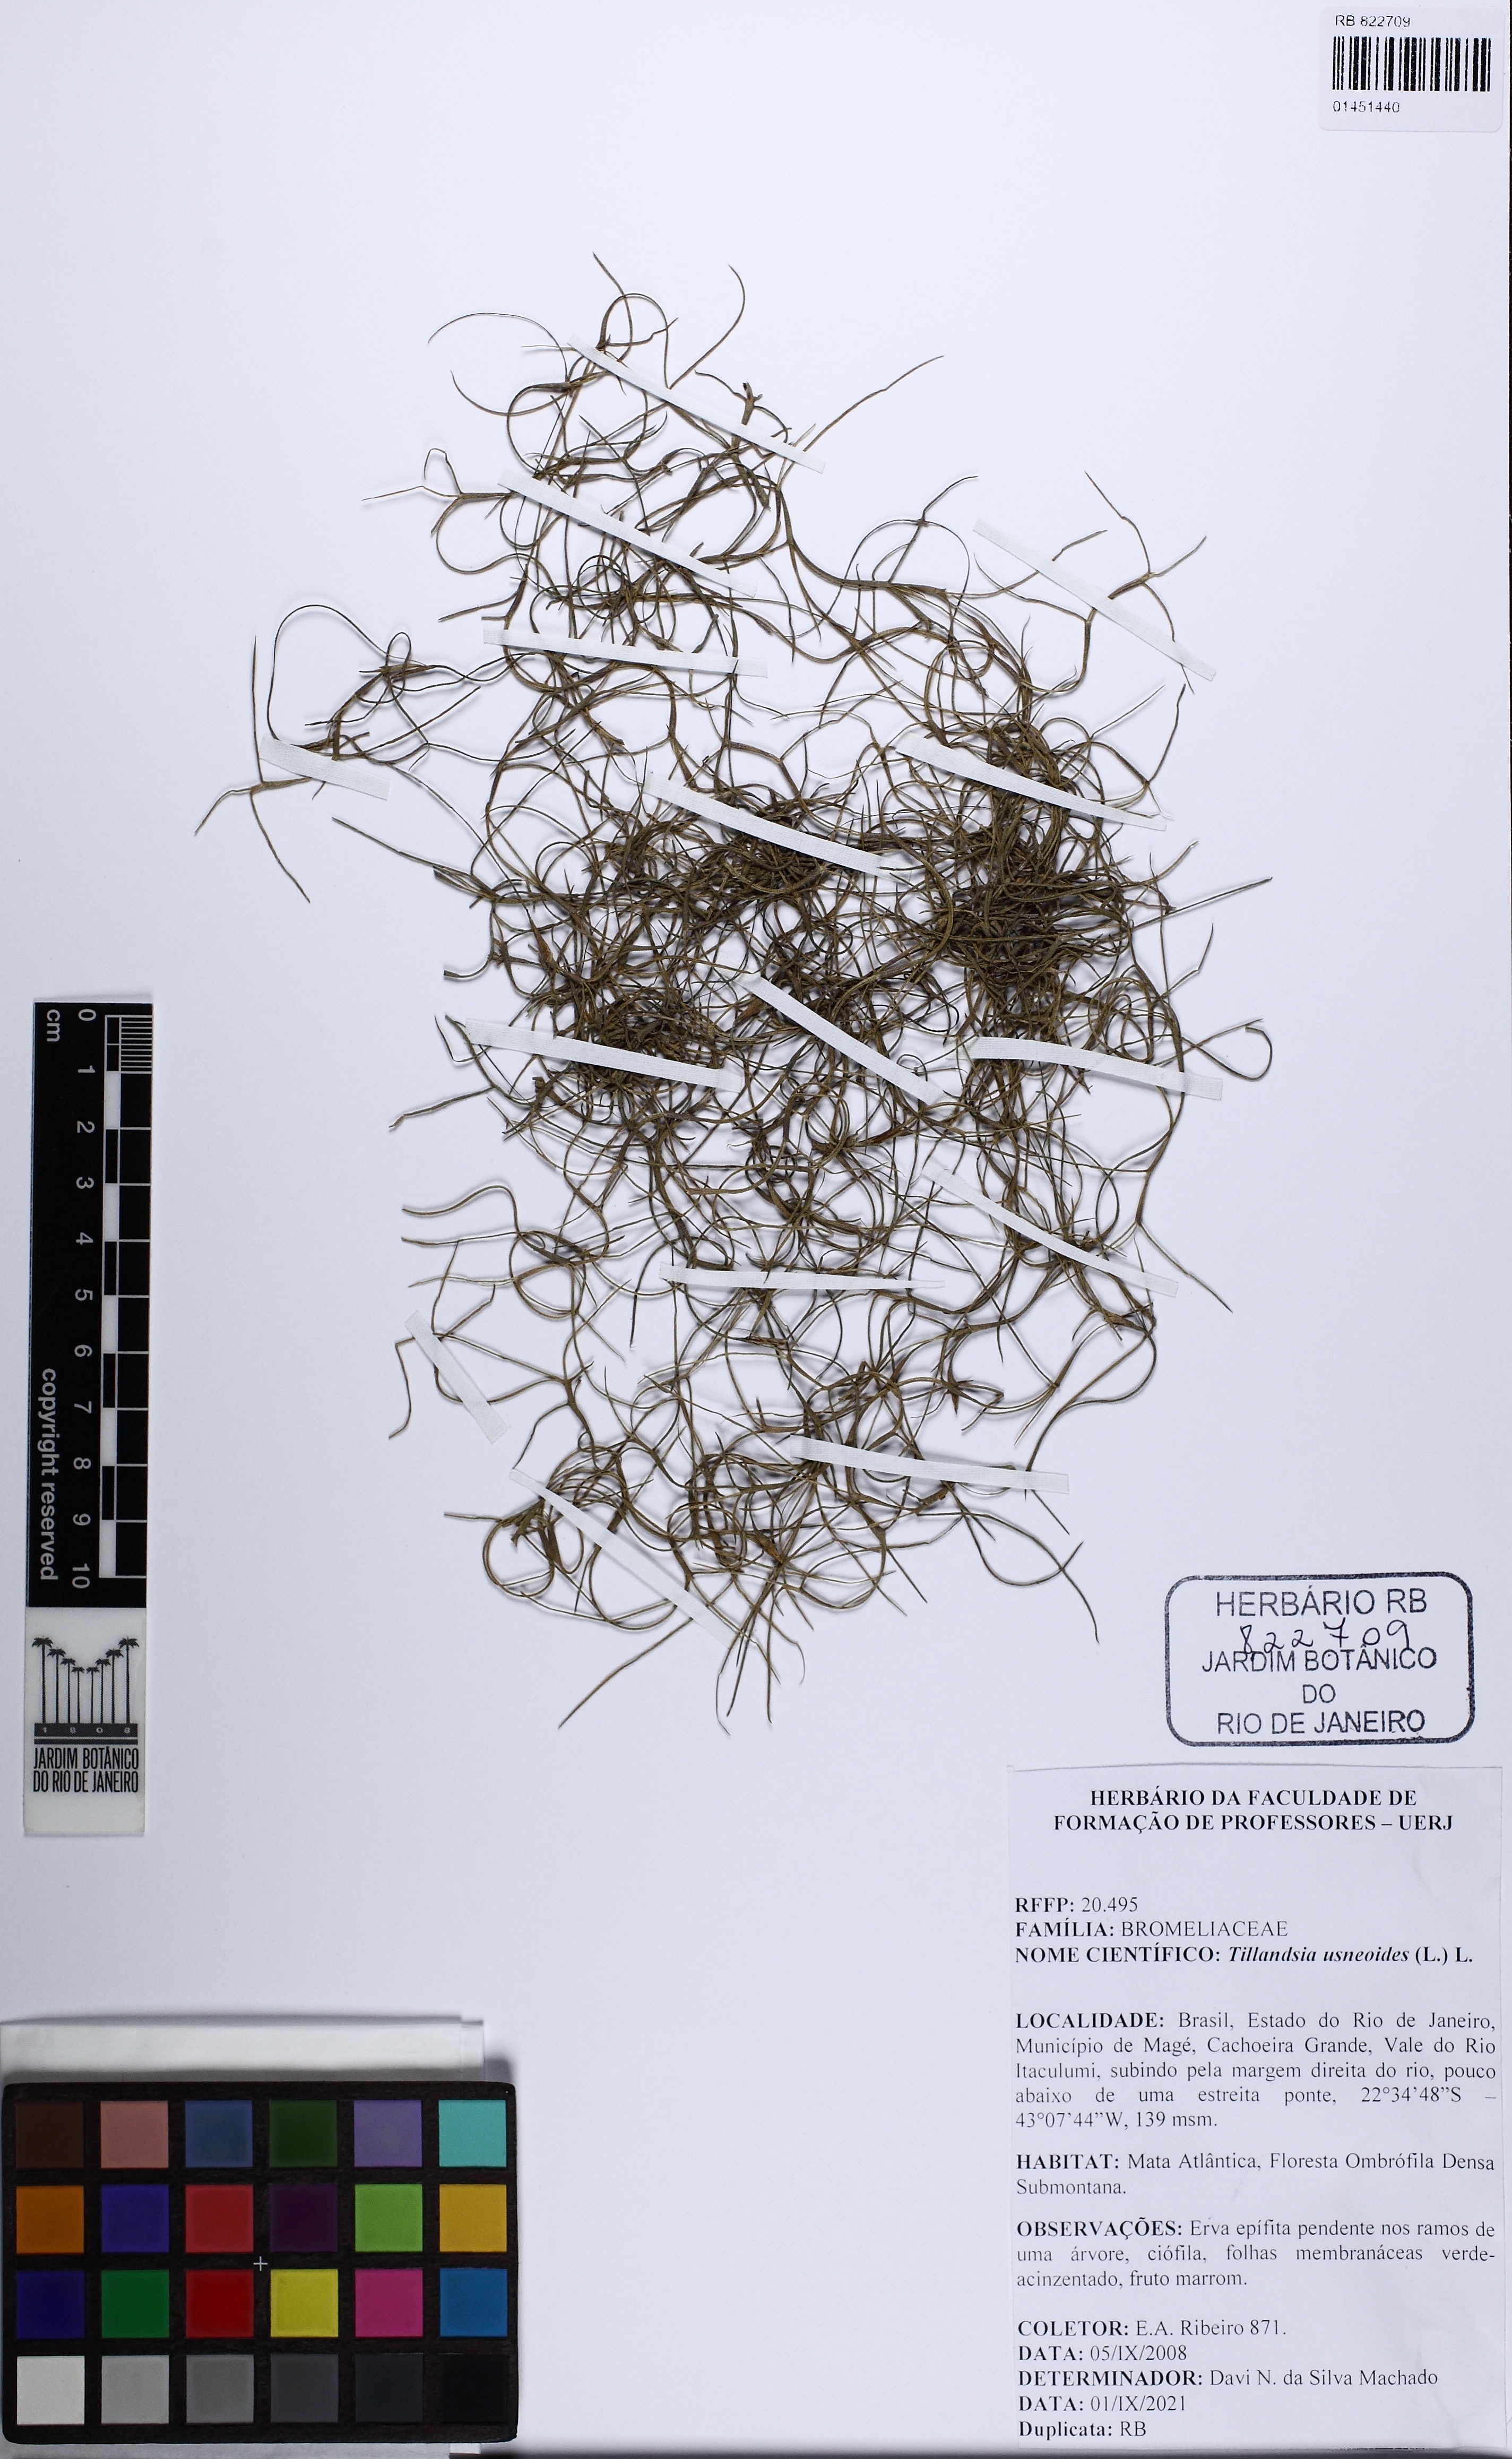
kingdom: Plantae
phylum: Tracheophyta
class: Liliopsida
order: Poales
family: Bromeliaceae
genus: Tillandsia
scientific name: Tillandsia usneoides
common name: Spanish moss
